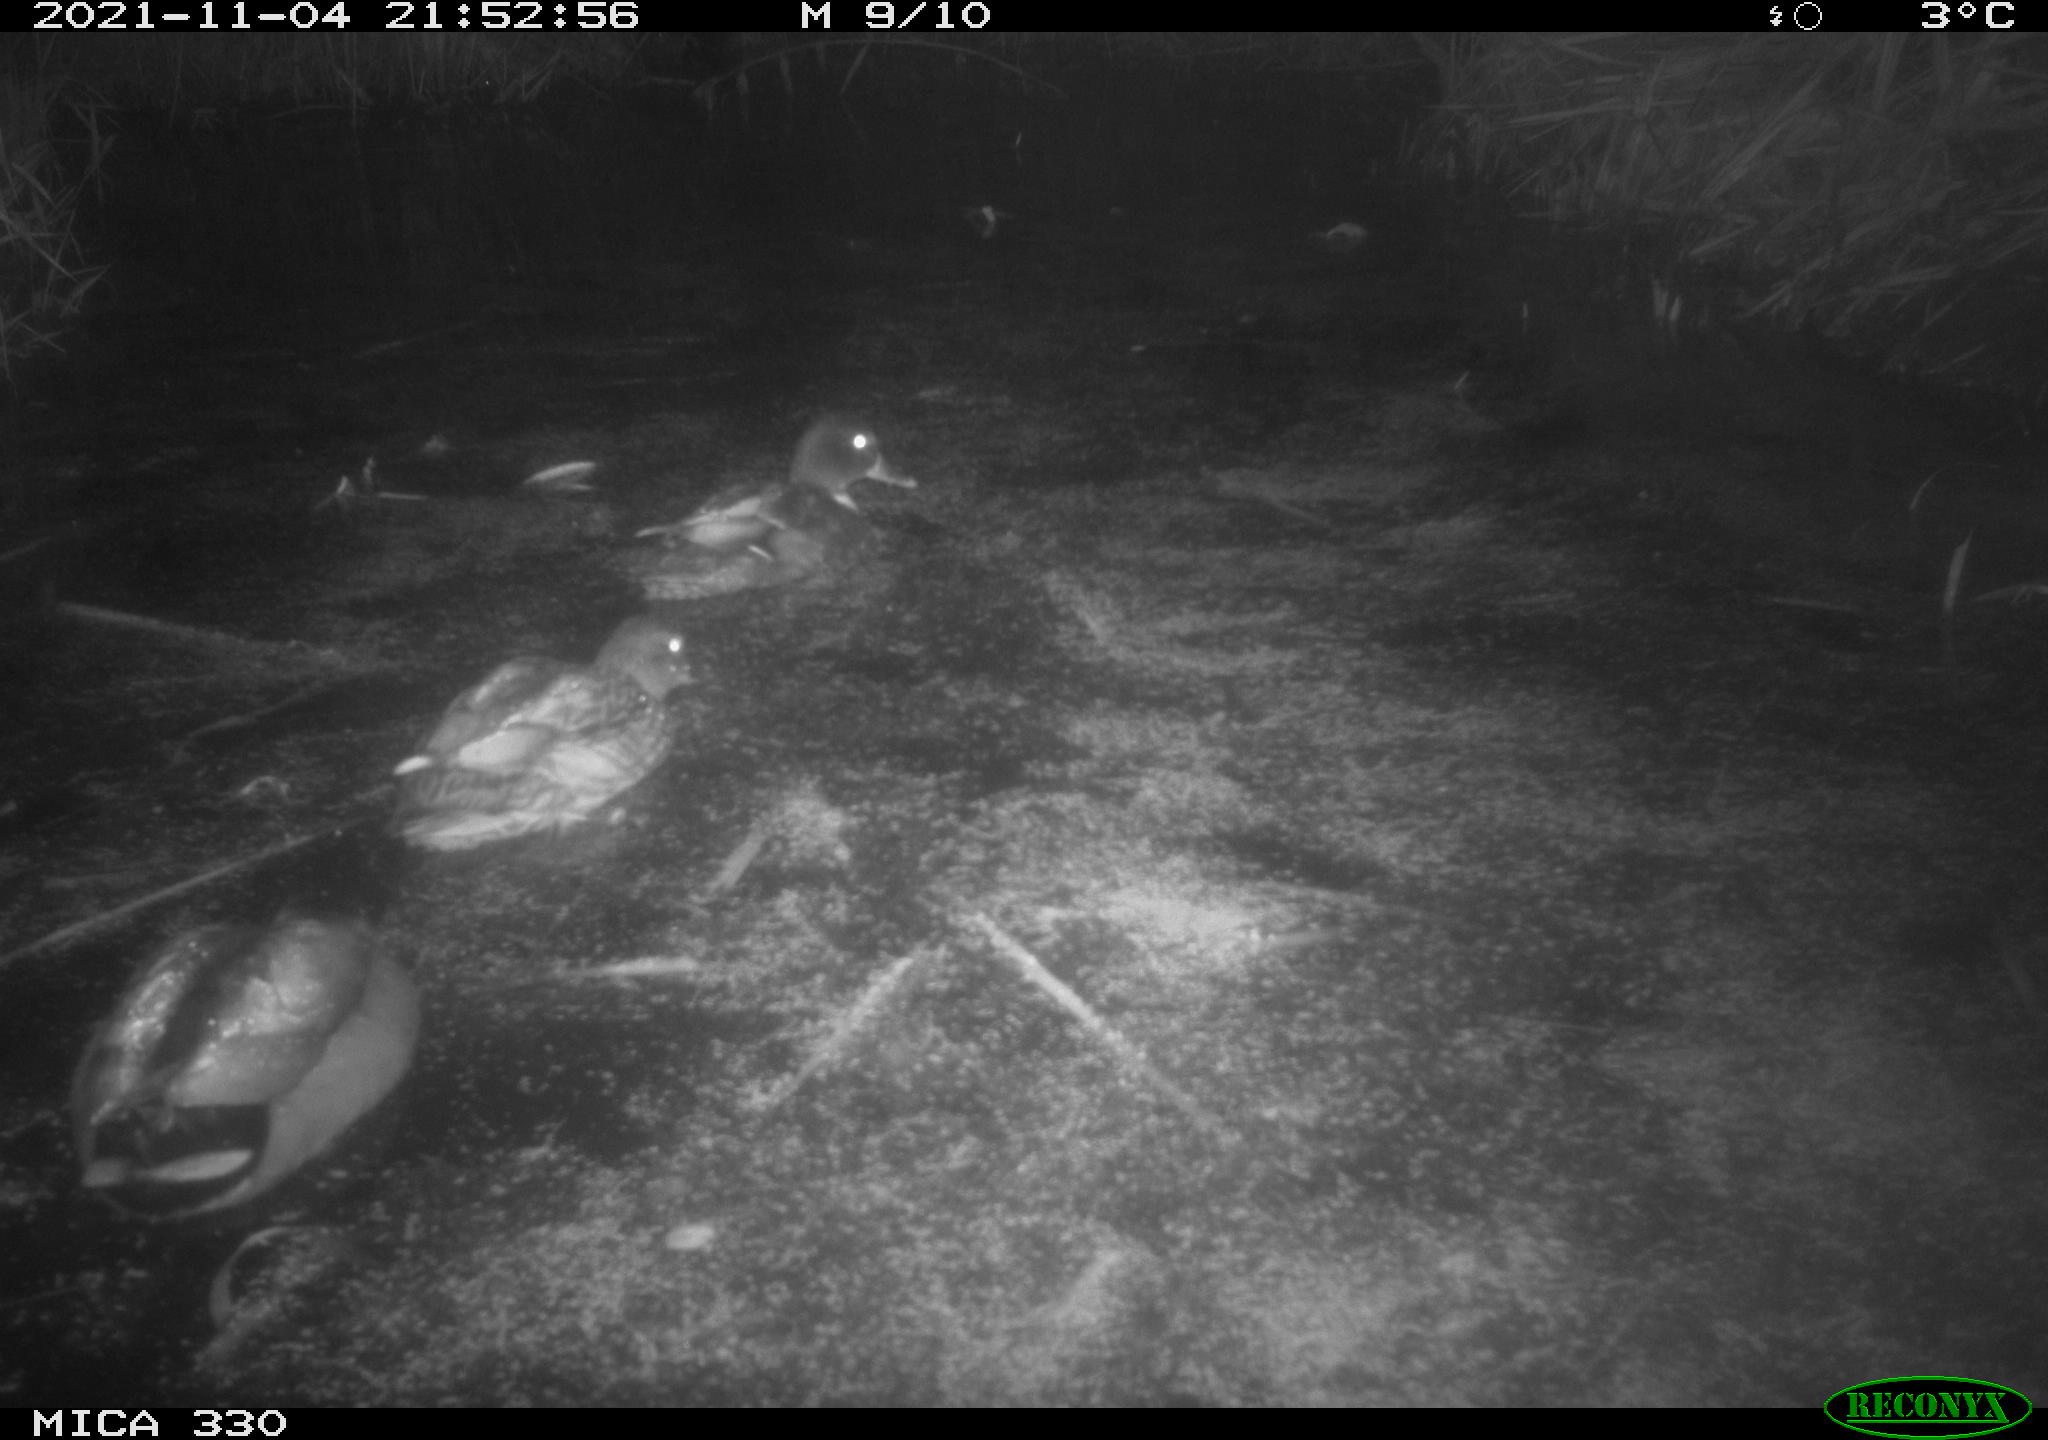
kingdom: Animalia
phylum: Chordata
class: Aves
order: Anseriformes
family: Anatidae
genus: Anas
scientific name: Anas platyrhynchos
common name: Mallard
